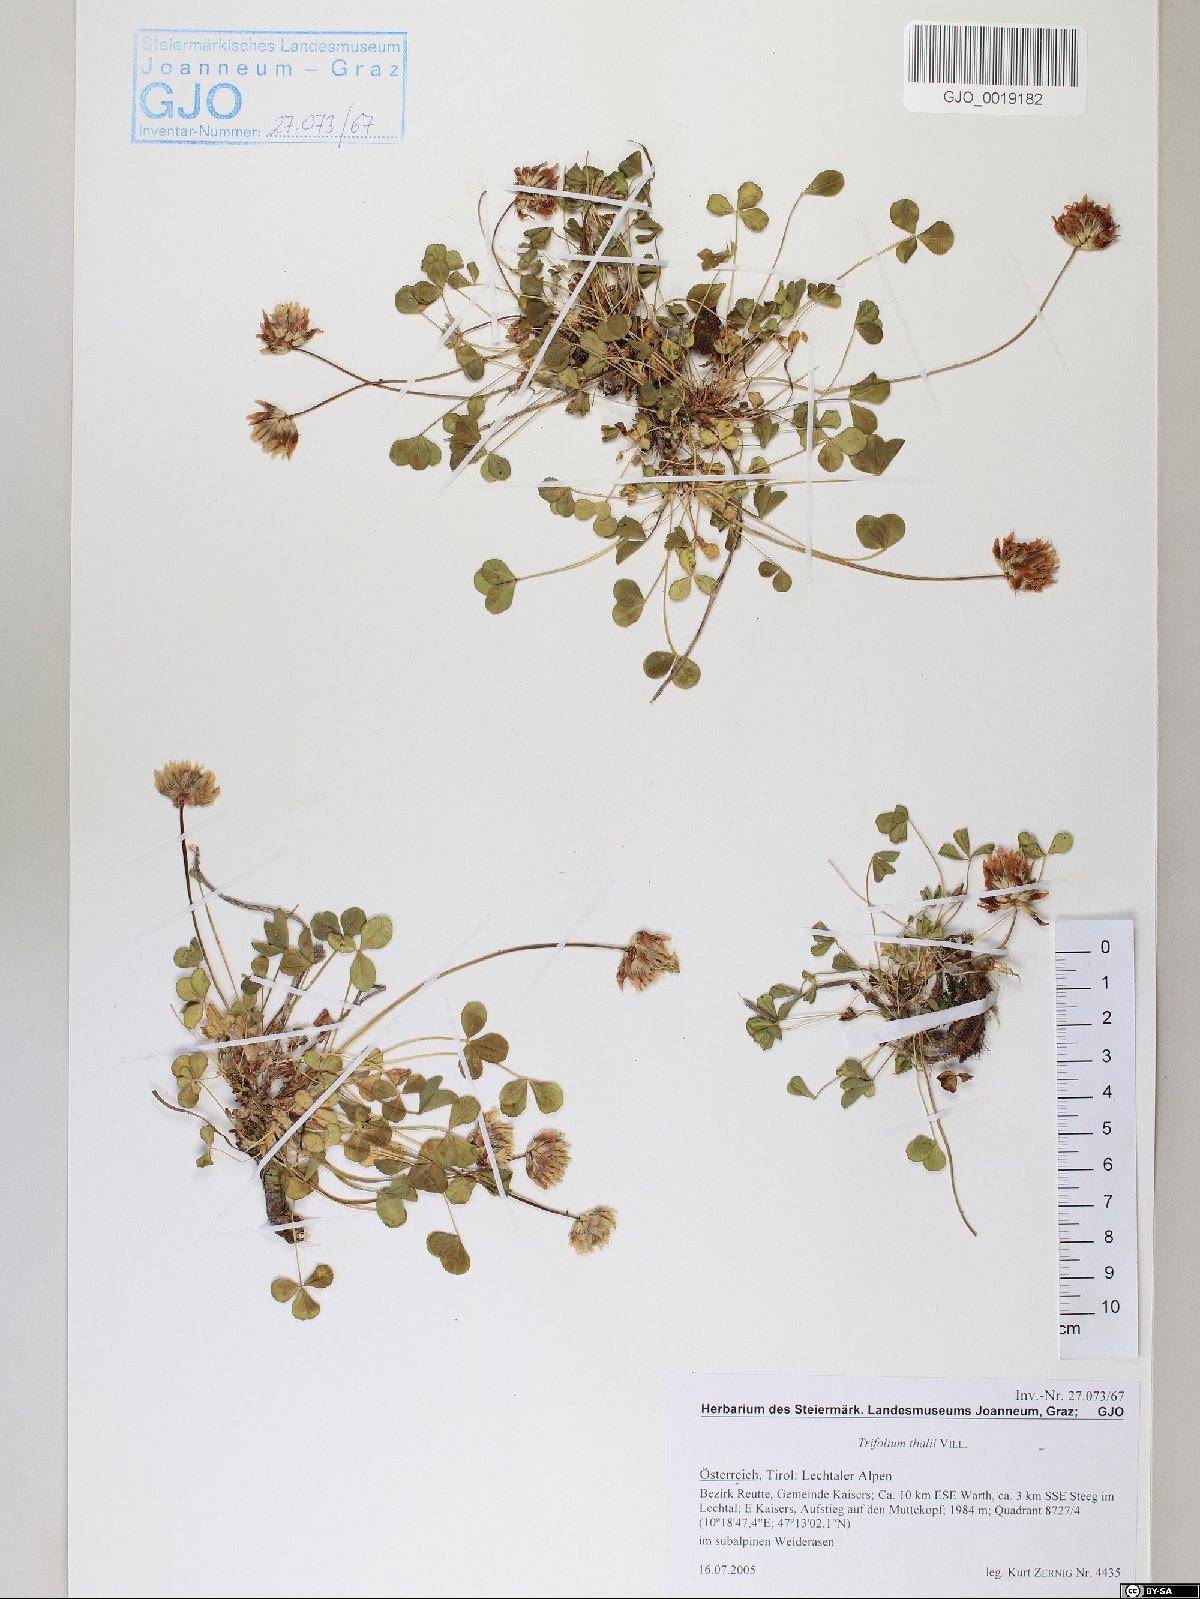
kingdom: Plantae
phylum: Tracheophyta
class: Magnoliopsida
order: Fabales
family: Fabaceae
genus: Trifolium
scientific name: Trifolium thalii
